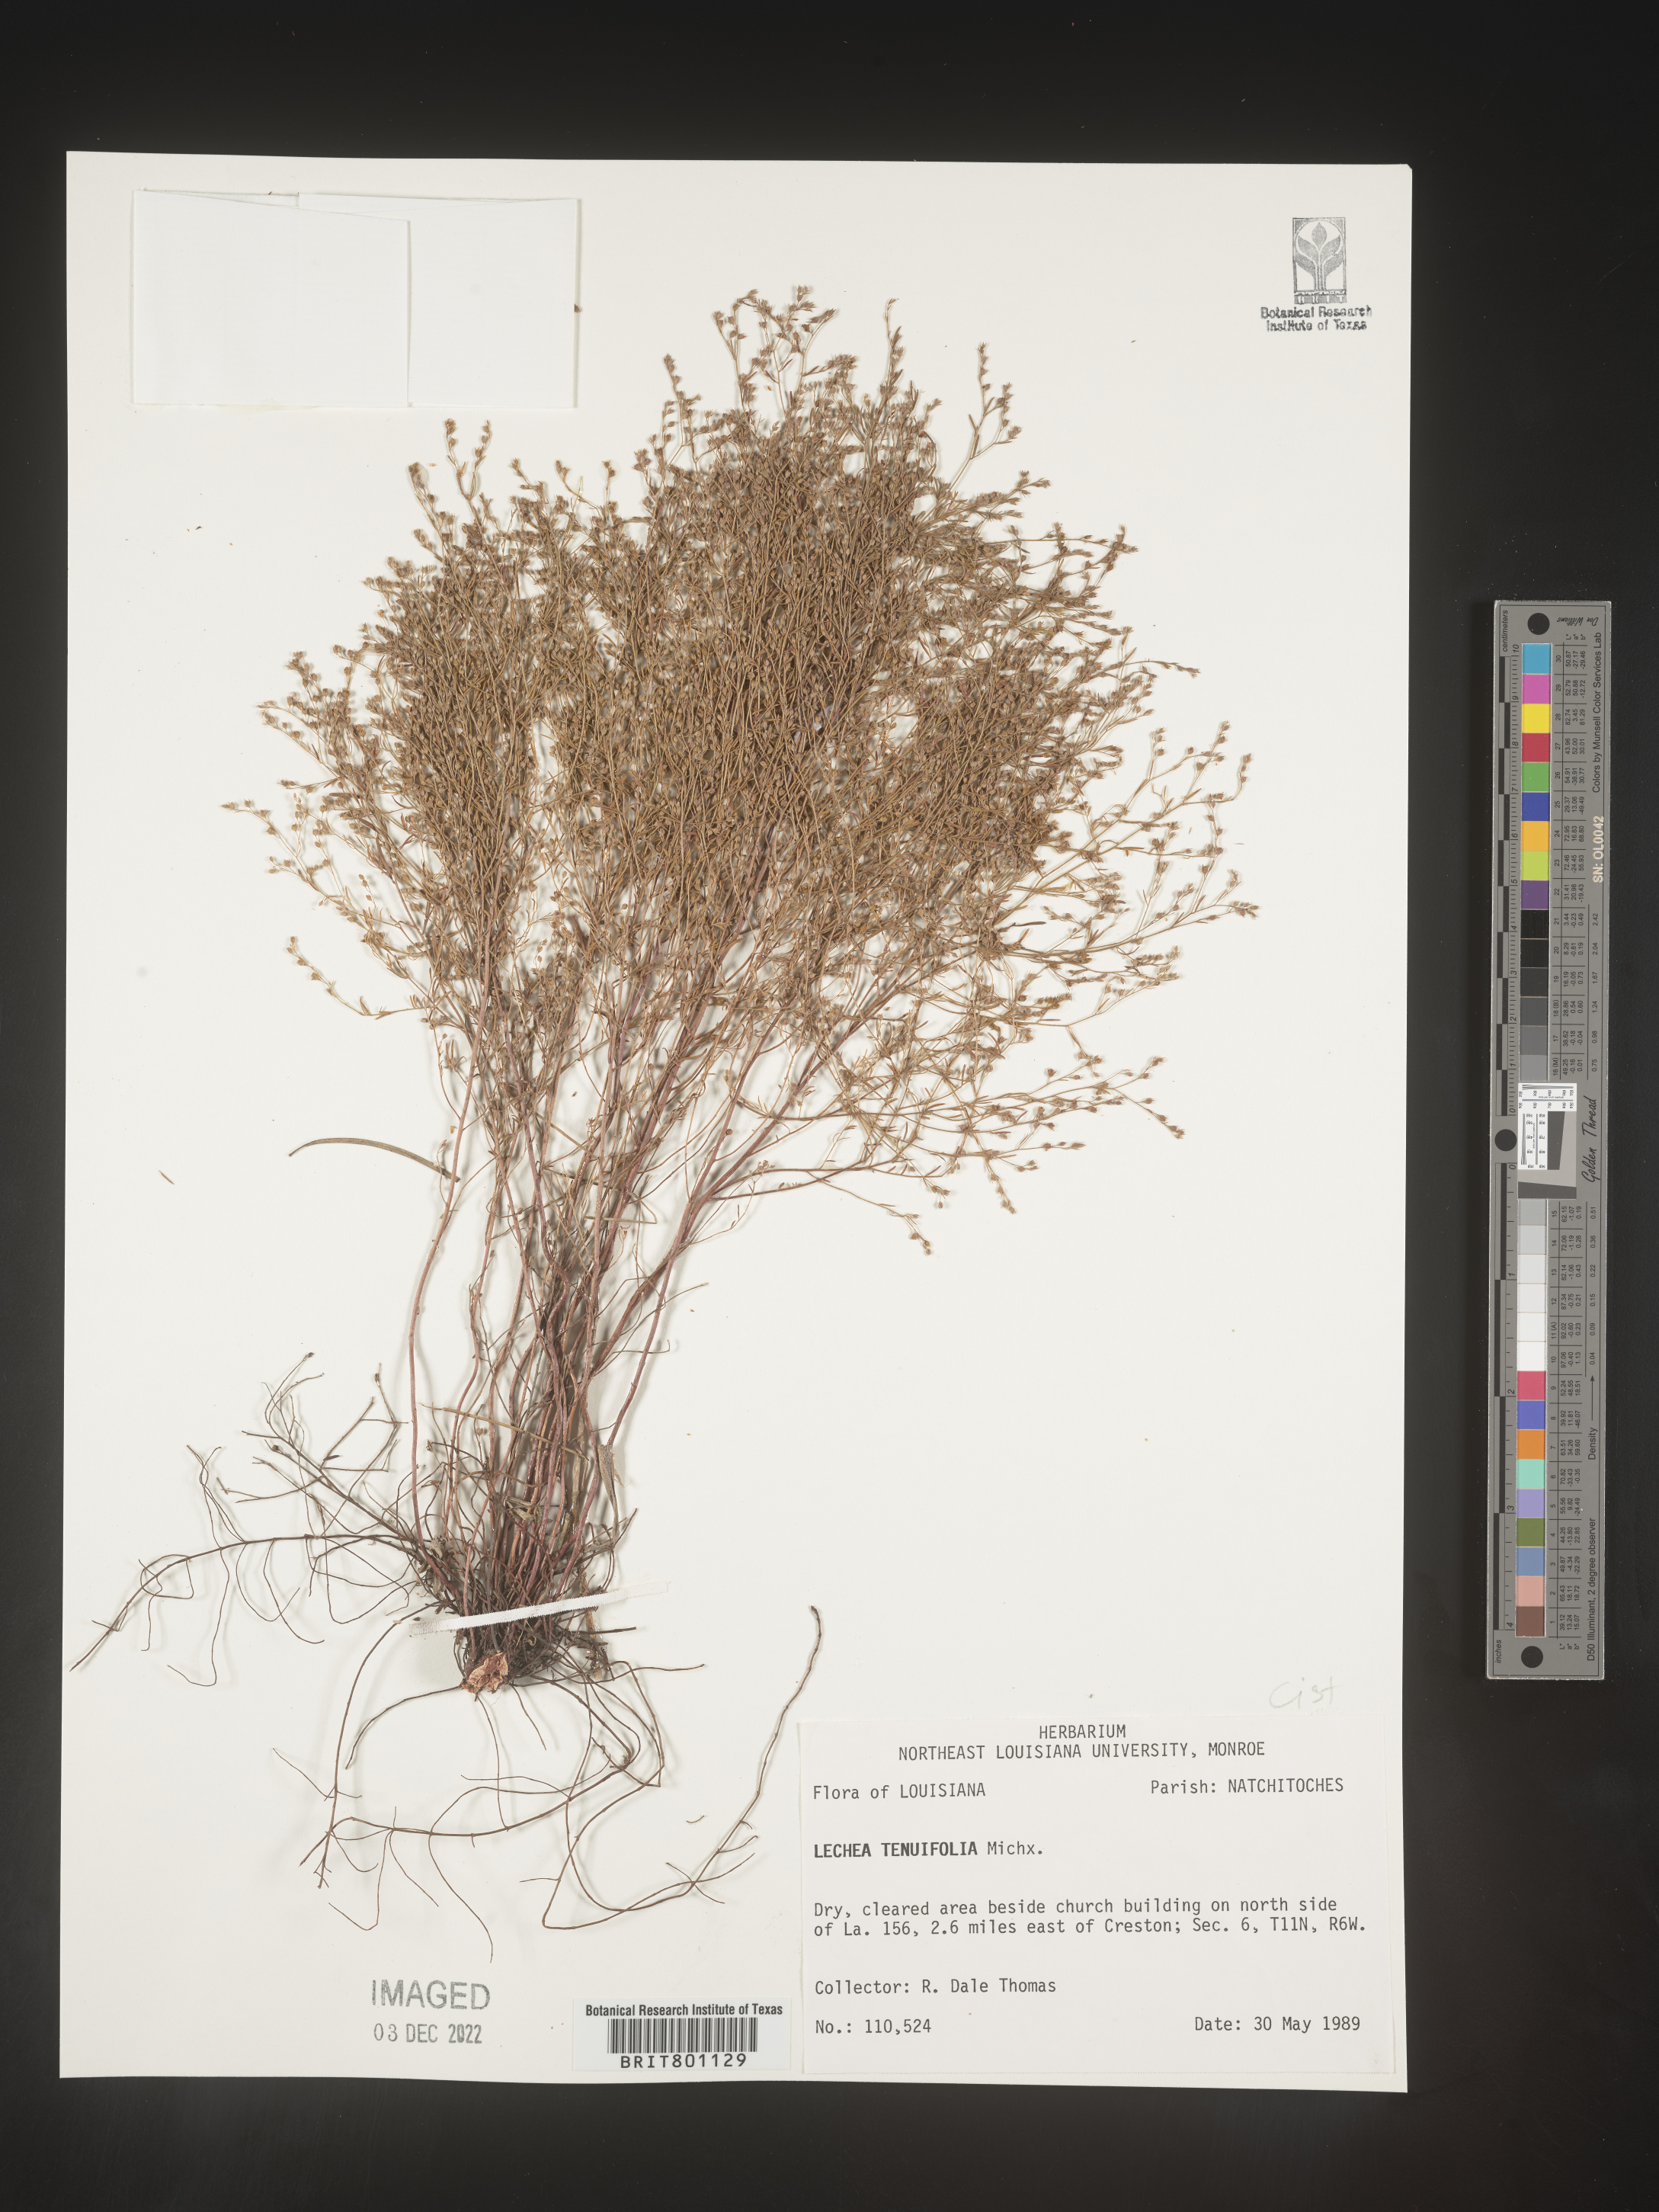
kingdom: Plantae
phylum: Tracheophyta
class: Magnoliopsida
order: Malvales
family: Cistaceae
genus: Lechea
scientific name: Lechea tenuifolia
